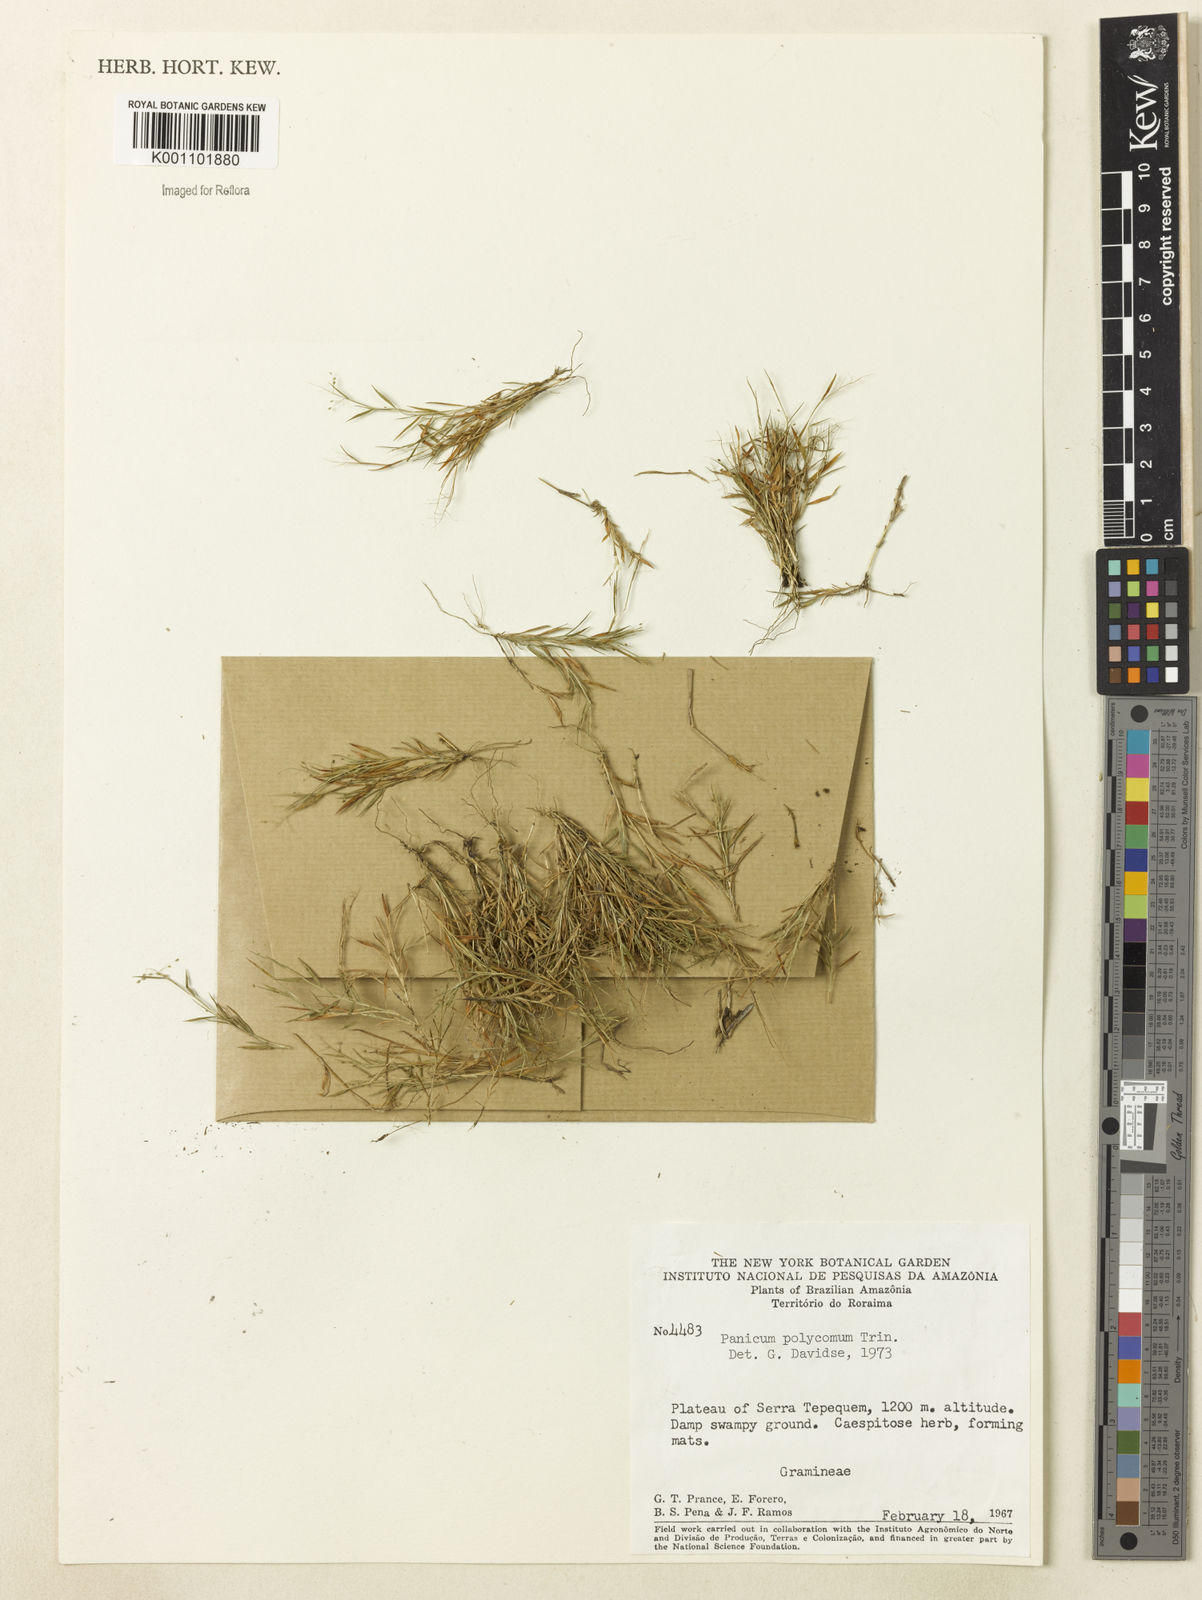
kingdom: Plantae
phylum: Tracheophyta
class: Liliopsida
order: Poales
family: Poaceae
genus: Trichanthecium
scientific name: Trichanthecium polycomum
